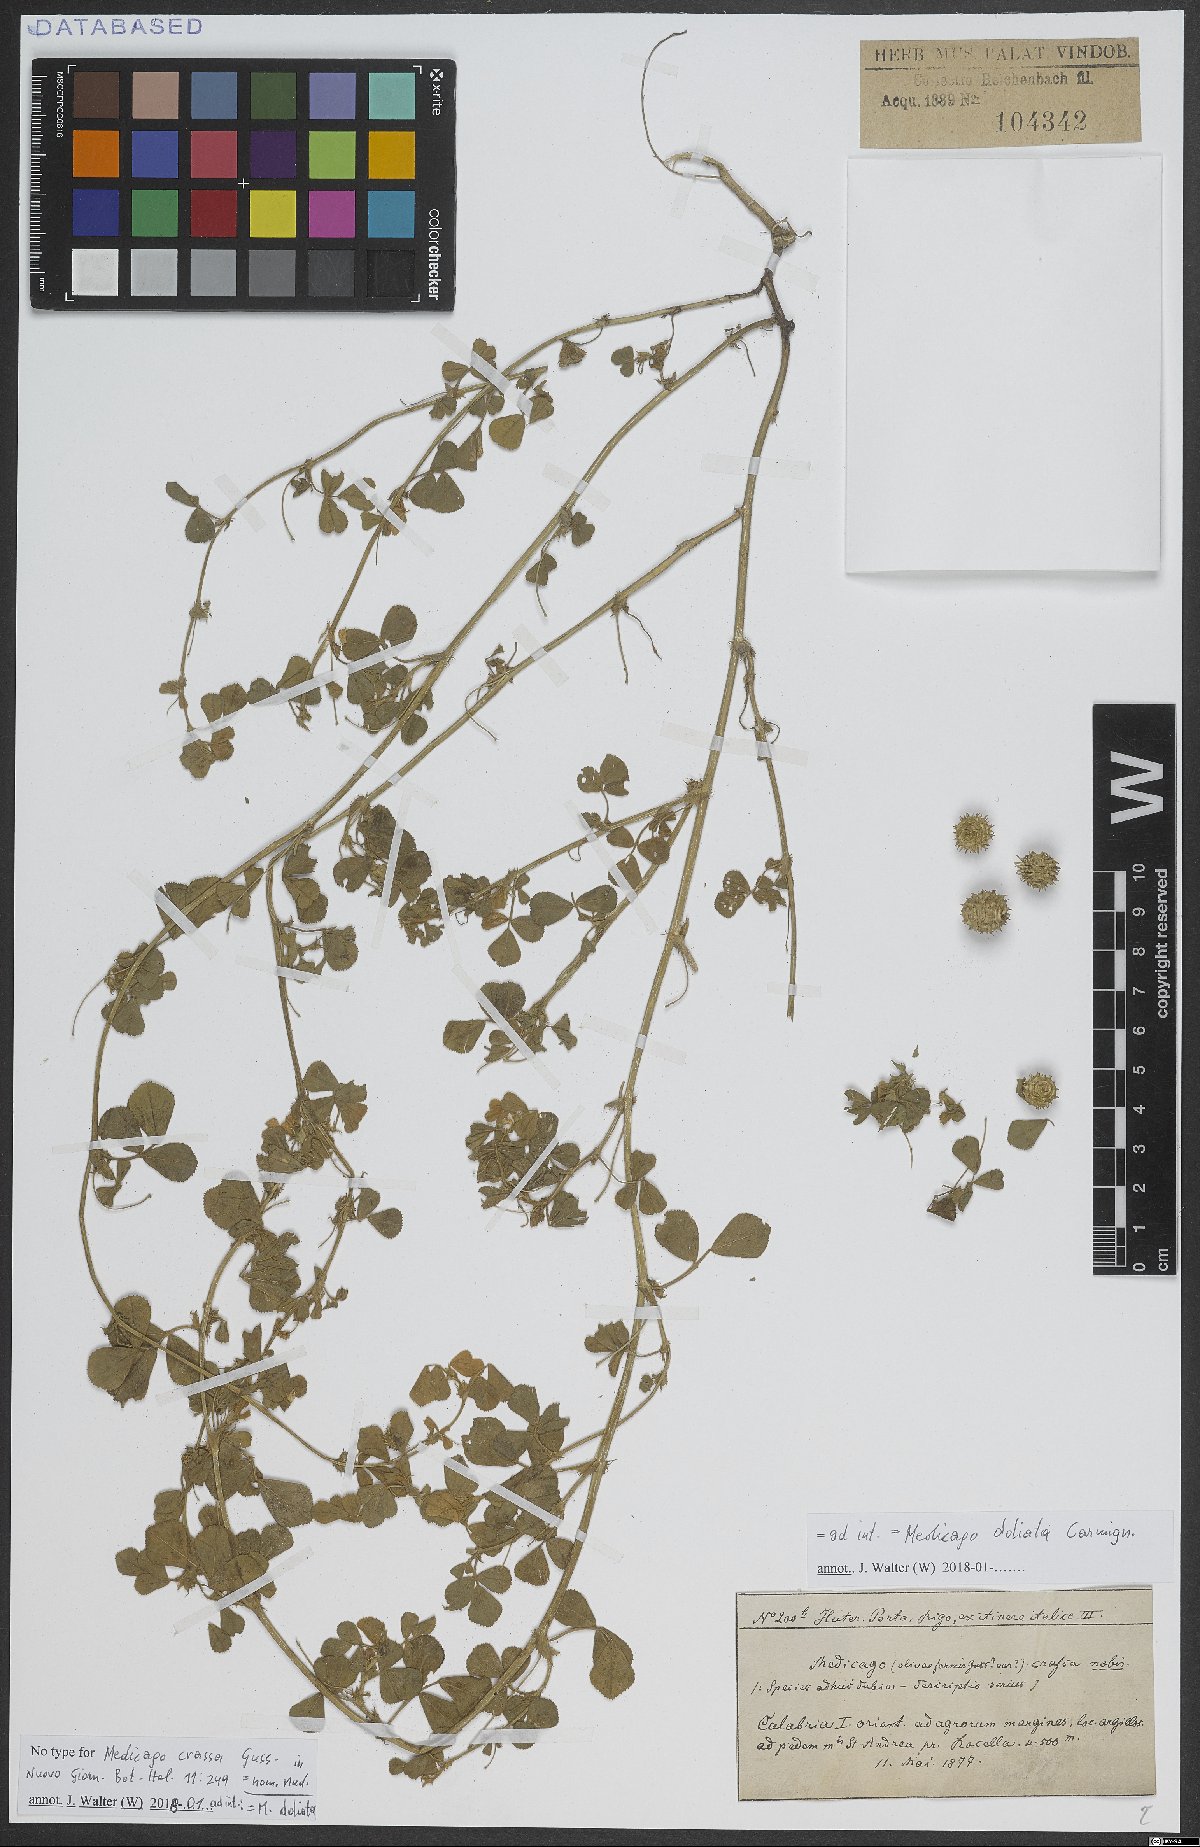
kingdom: Plantae
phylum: Tracheophyta
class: Magnoliopsida
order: Fabales
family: Fabaceae
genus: Medicago
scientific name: Medicago doliata
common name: Keg medic
